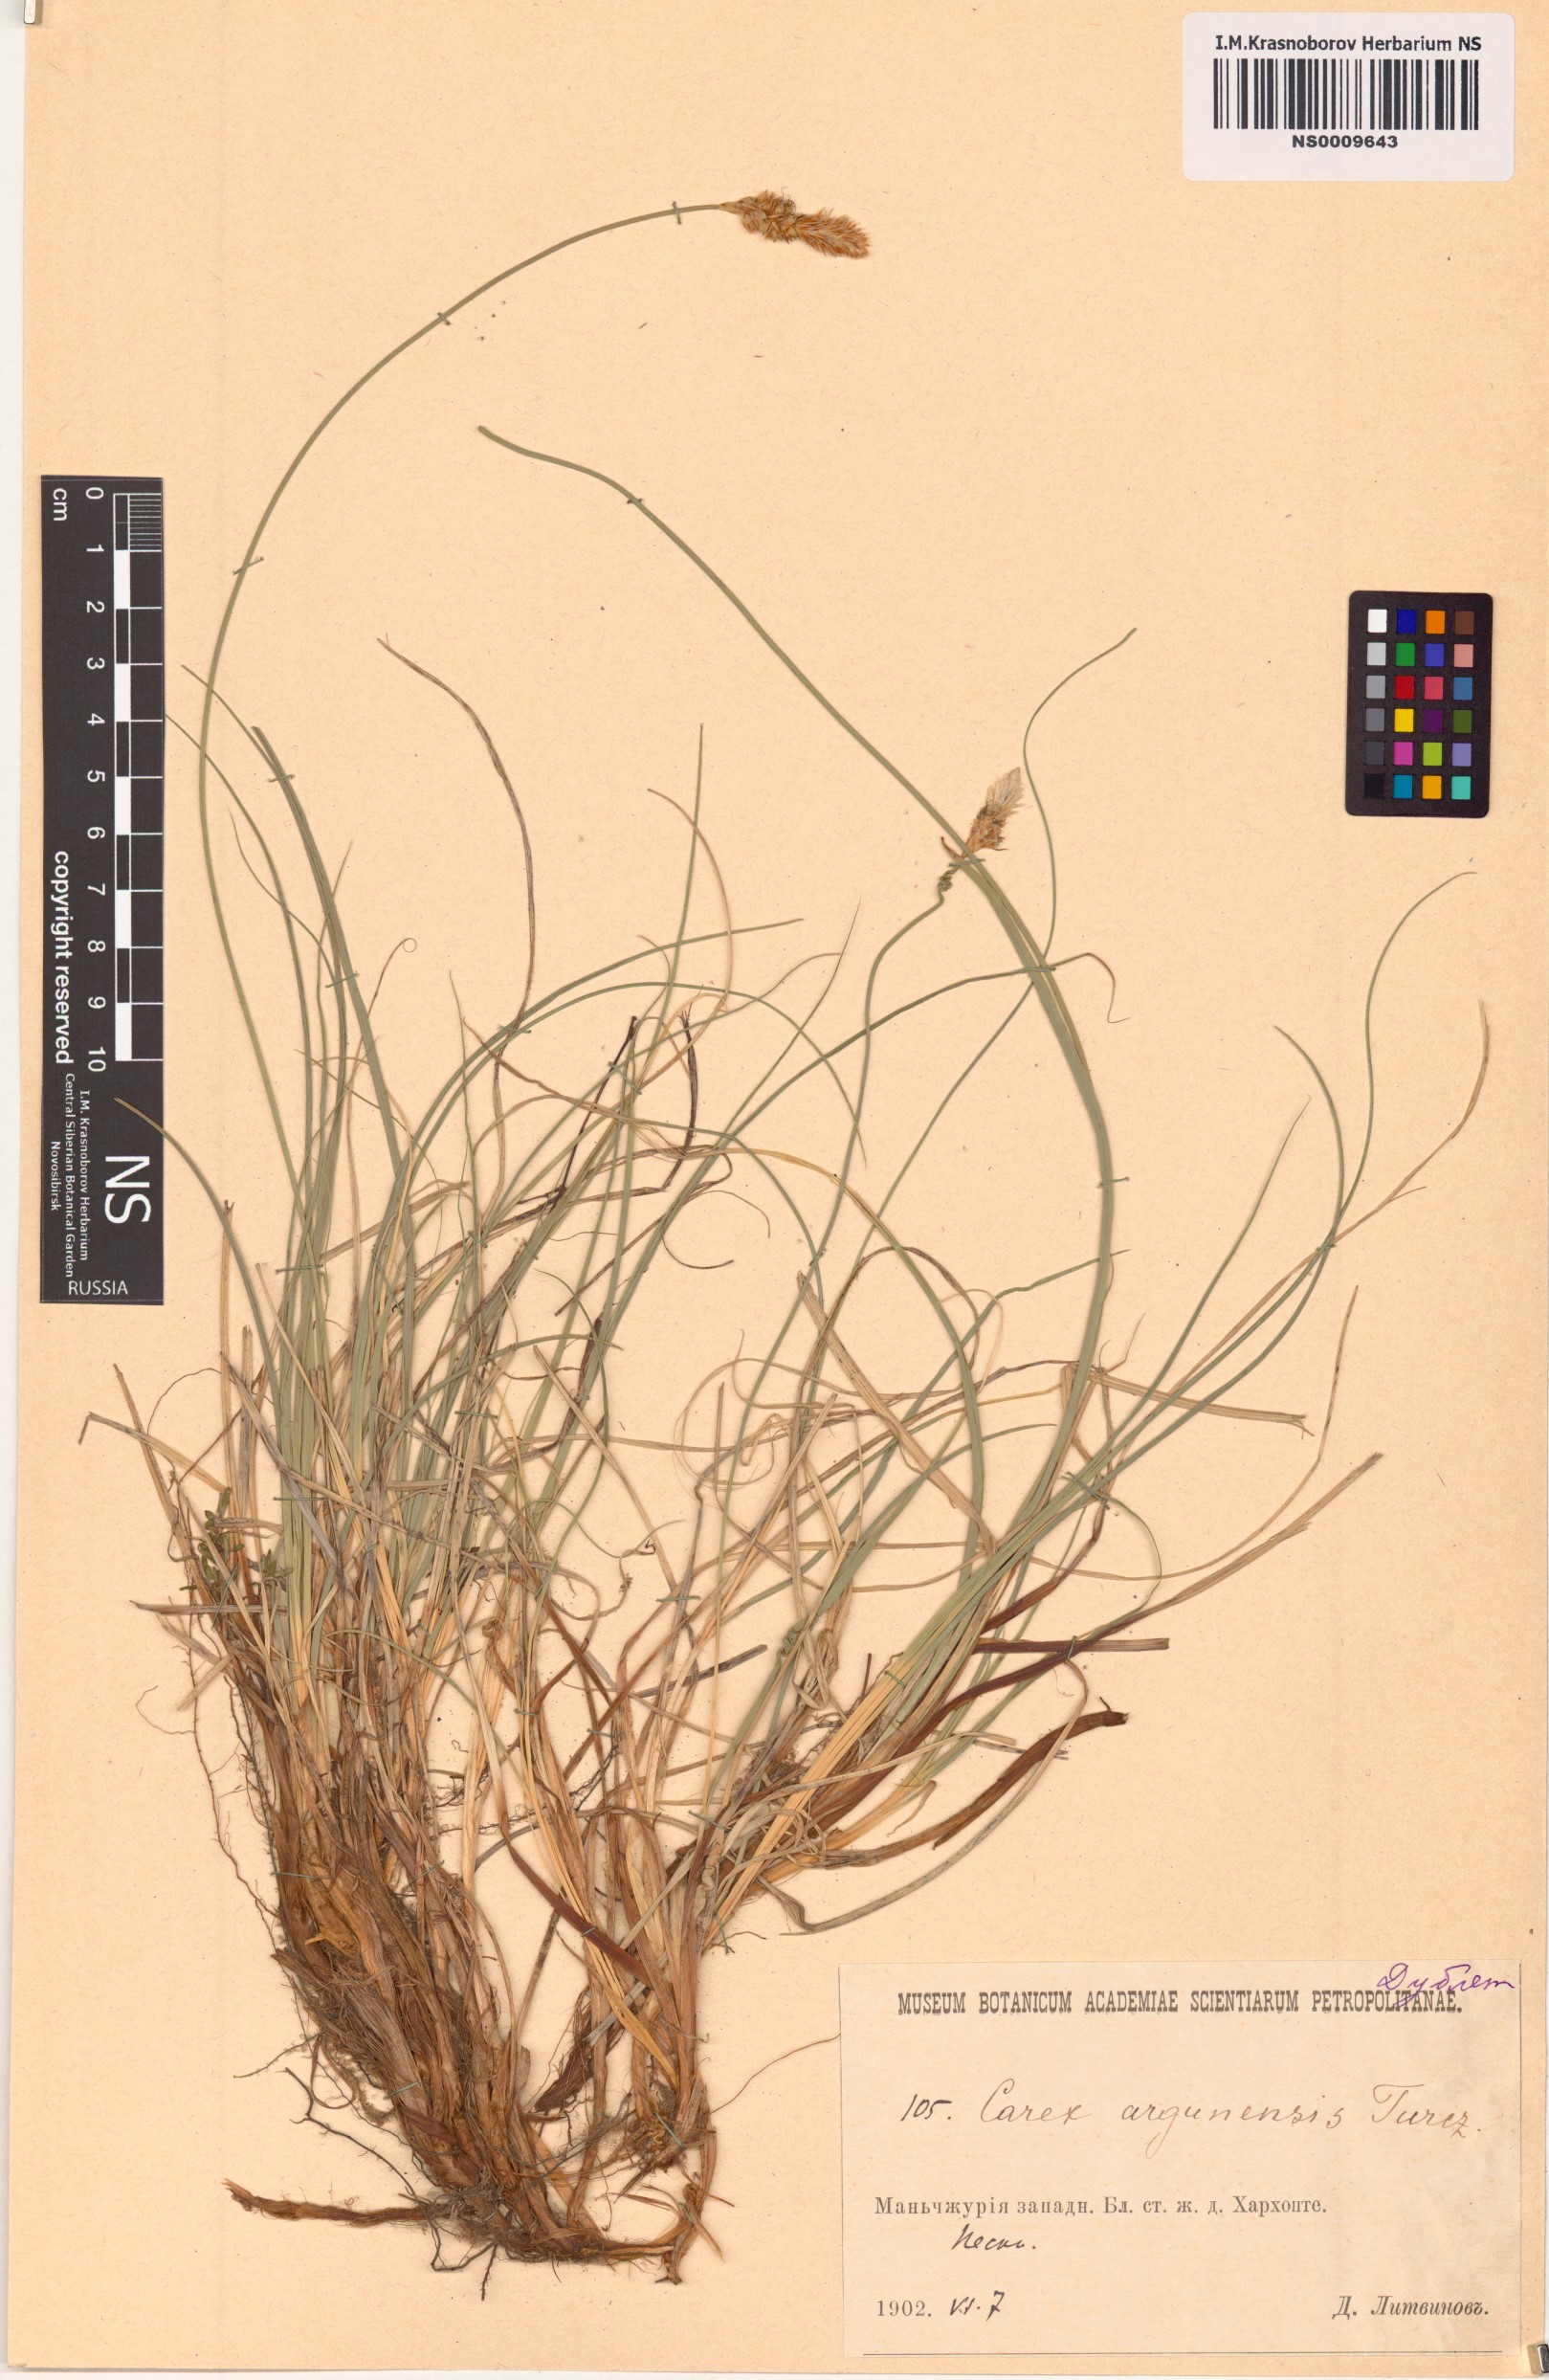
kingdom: Plantae
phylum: Tracheophyta
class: Liliopsida
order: Poales
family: Cyperaceae
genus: Carex
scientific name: Carex argunensis
